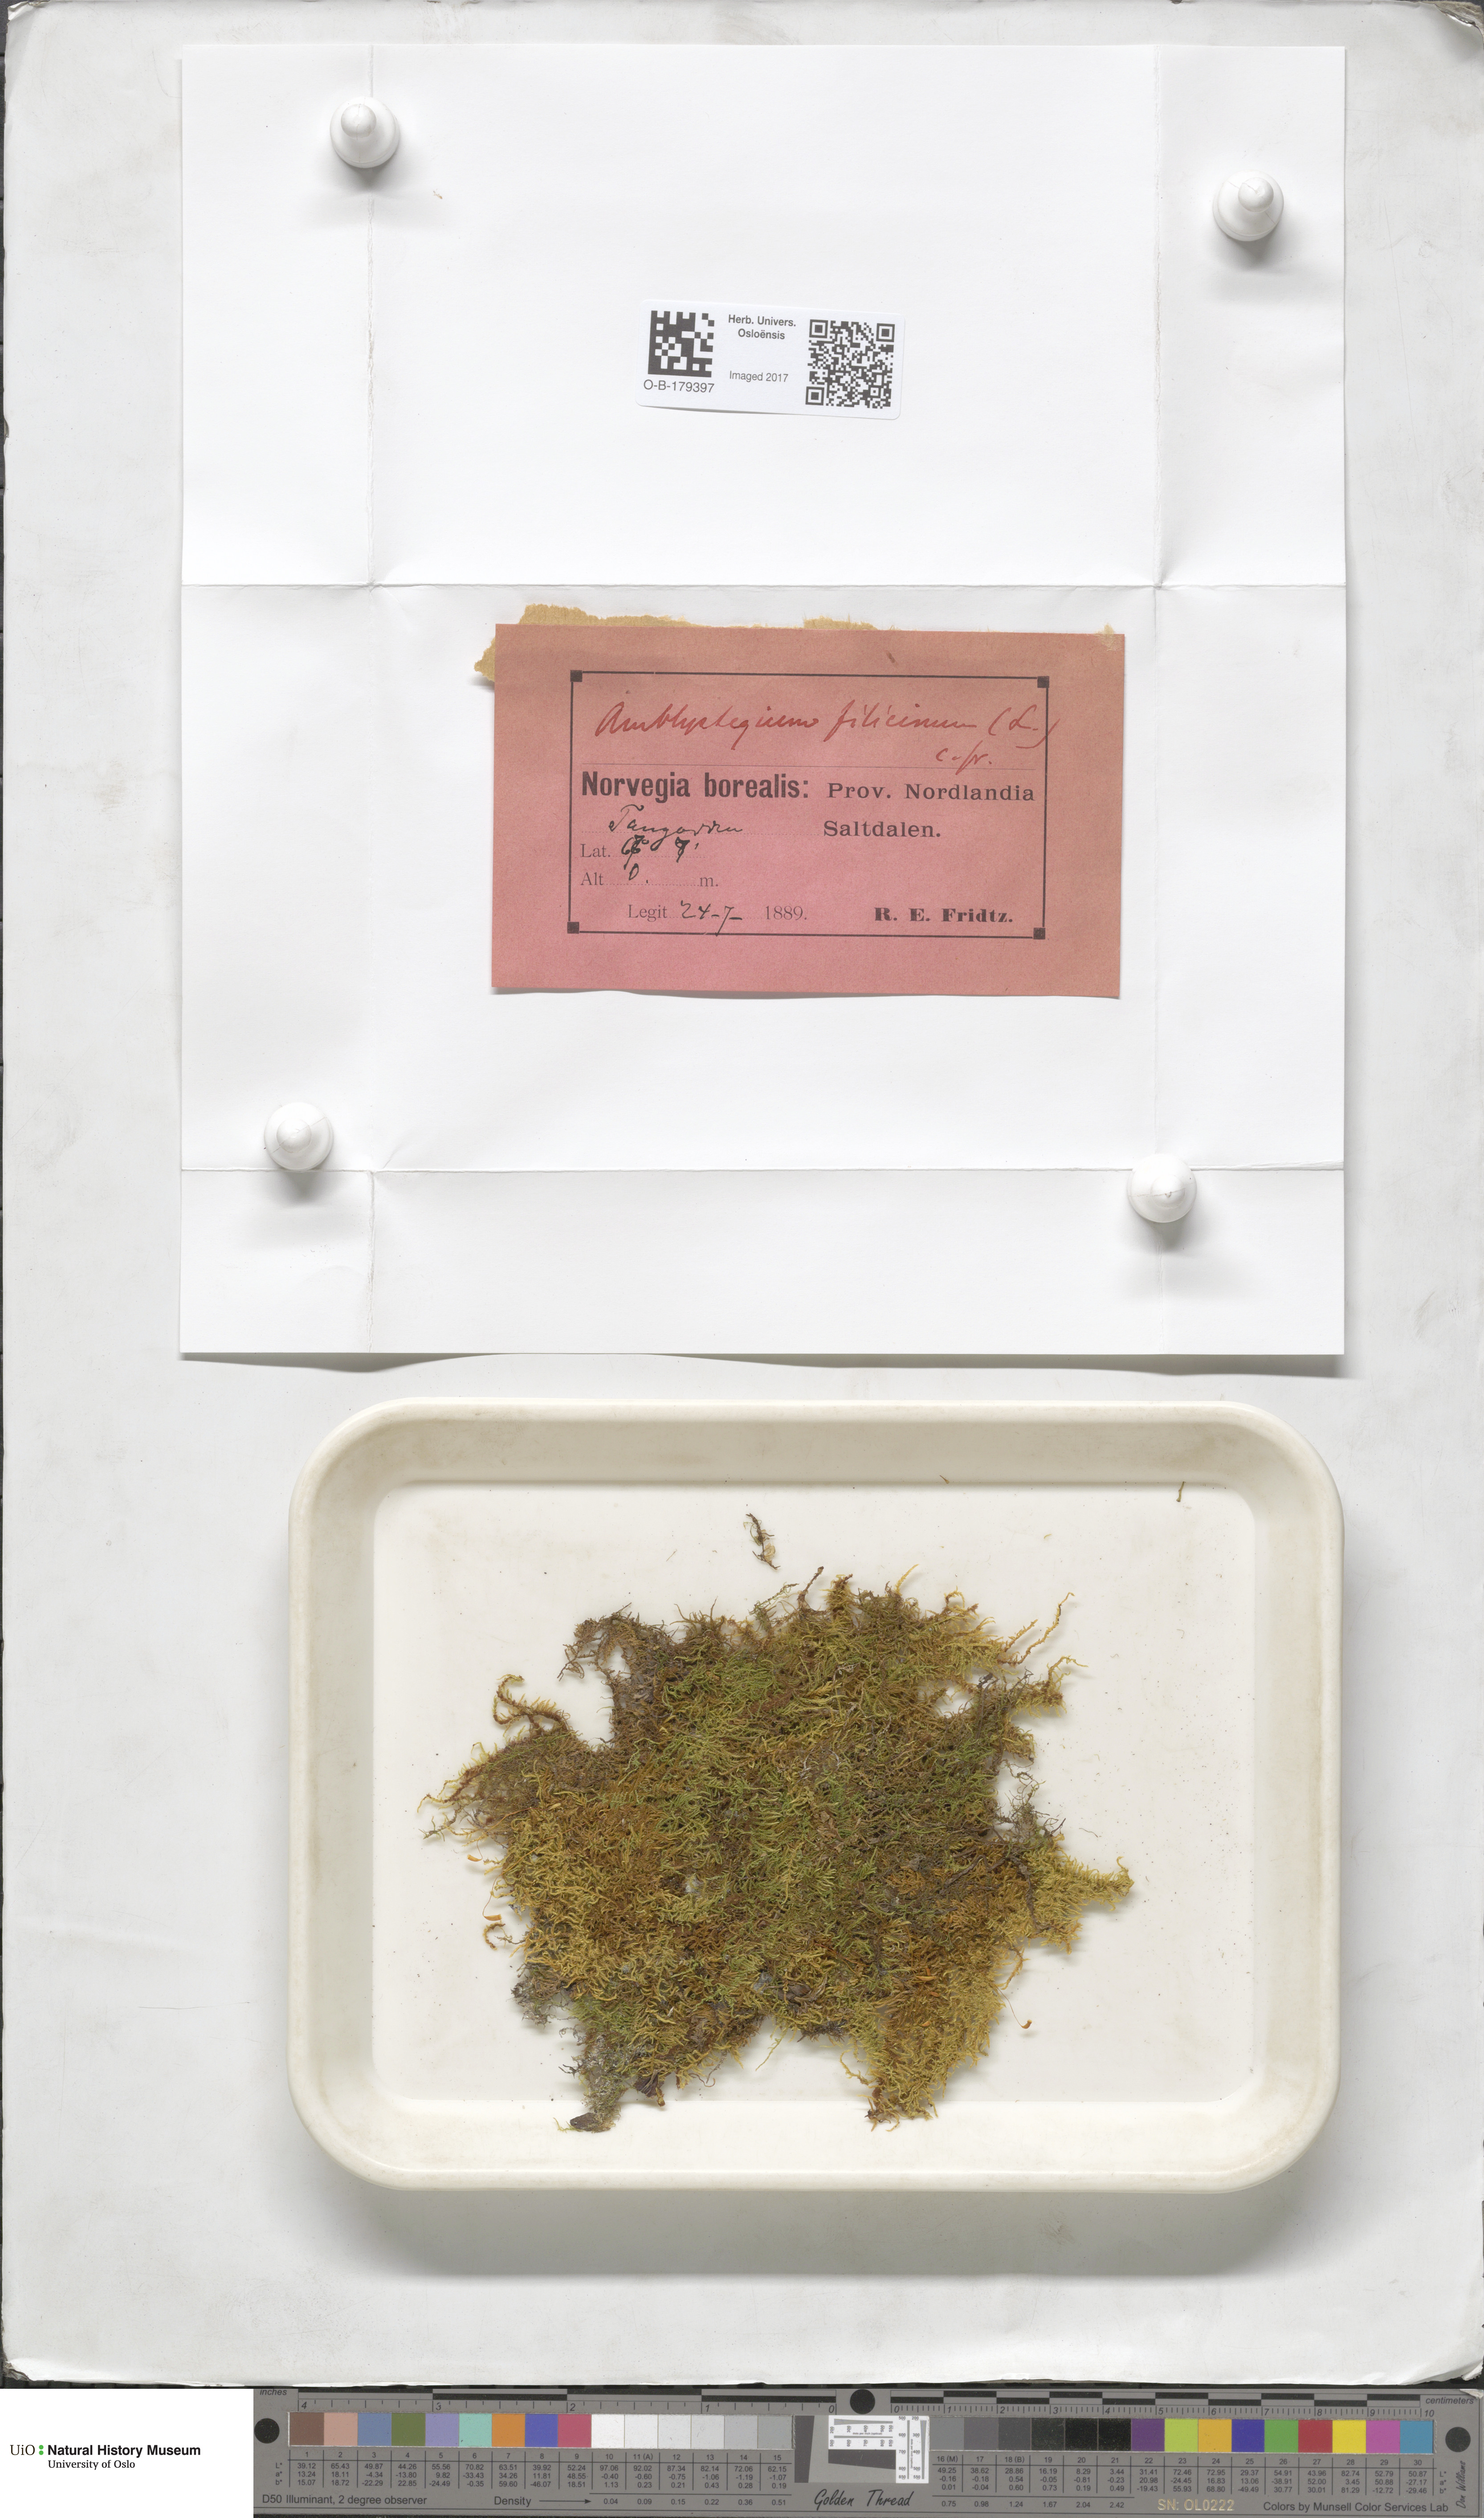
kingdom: Plantae
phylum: Bryophyta
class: Bryopsida
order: Hypnales
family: Amblystegiaceae
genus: Cratoneuron
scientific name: Cratoneuron filicinum
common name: Fern-leaved hook moss
